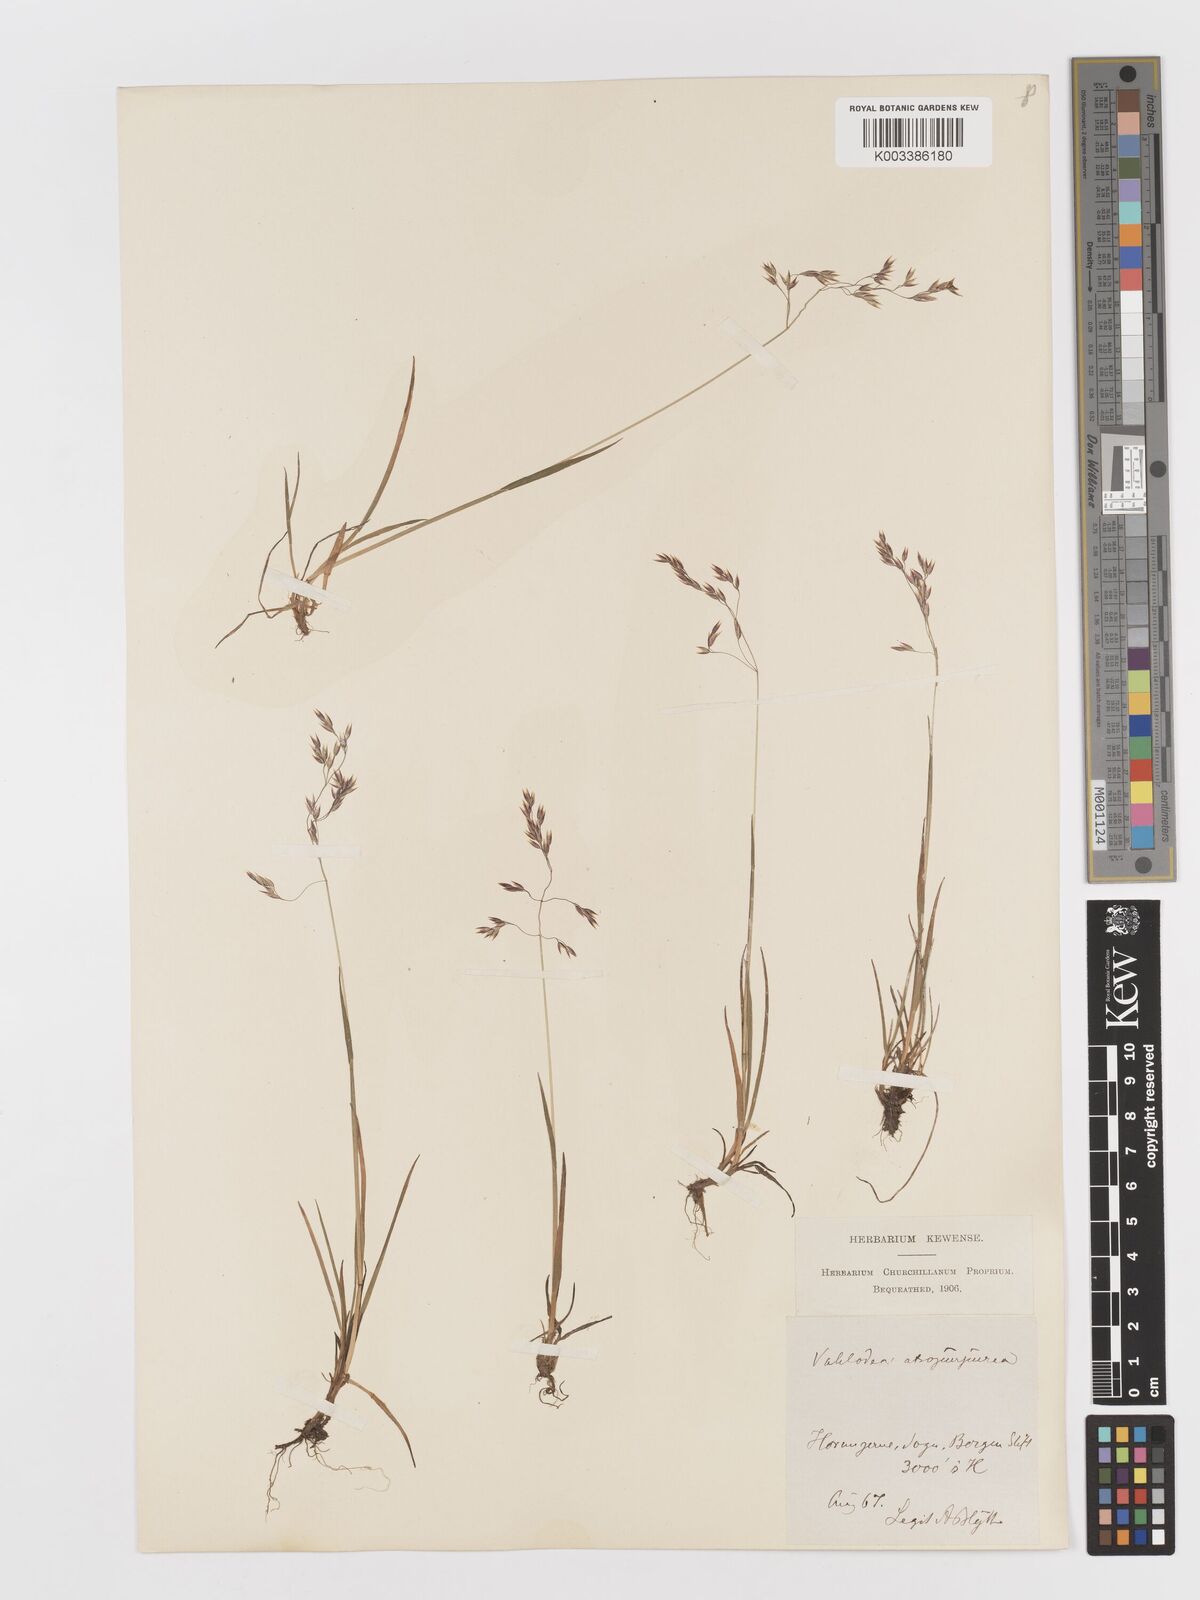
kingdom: Plantae
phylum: Tracheophyta
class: Liliopsida
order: Poales
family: Poaceae
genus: Vahlodea
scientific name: Vahlodea atropurpurea
